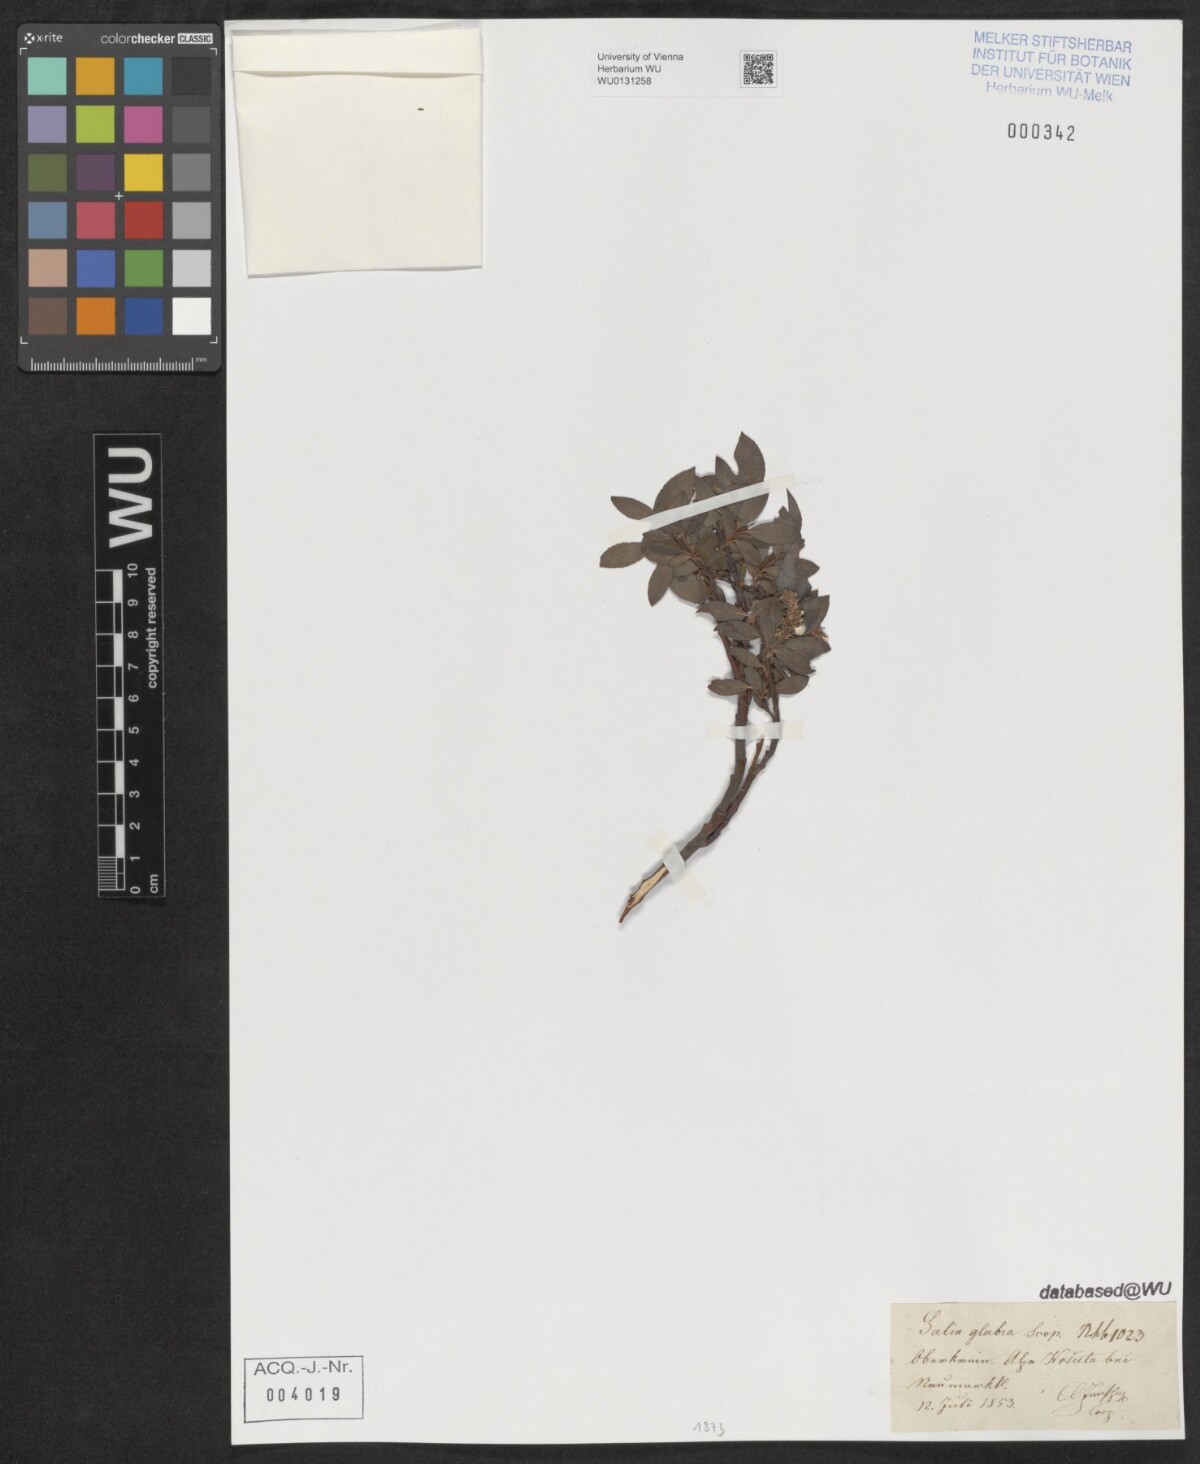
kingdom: Plantae
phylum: Tracheophyta
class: Magnoliopsida
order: Malpighiales
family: Salicaceae
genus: Salix
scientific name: Salix glabra
